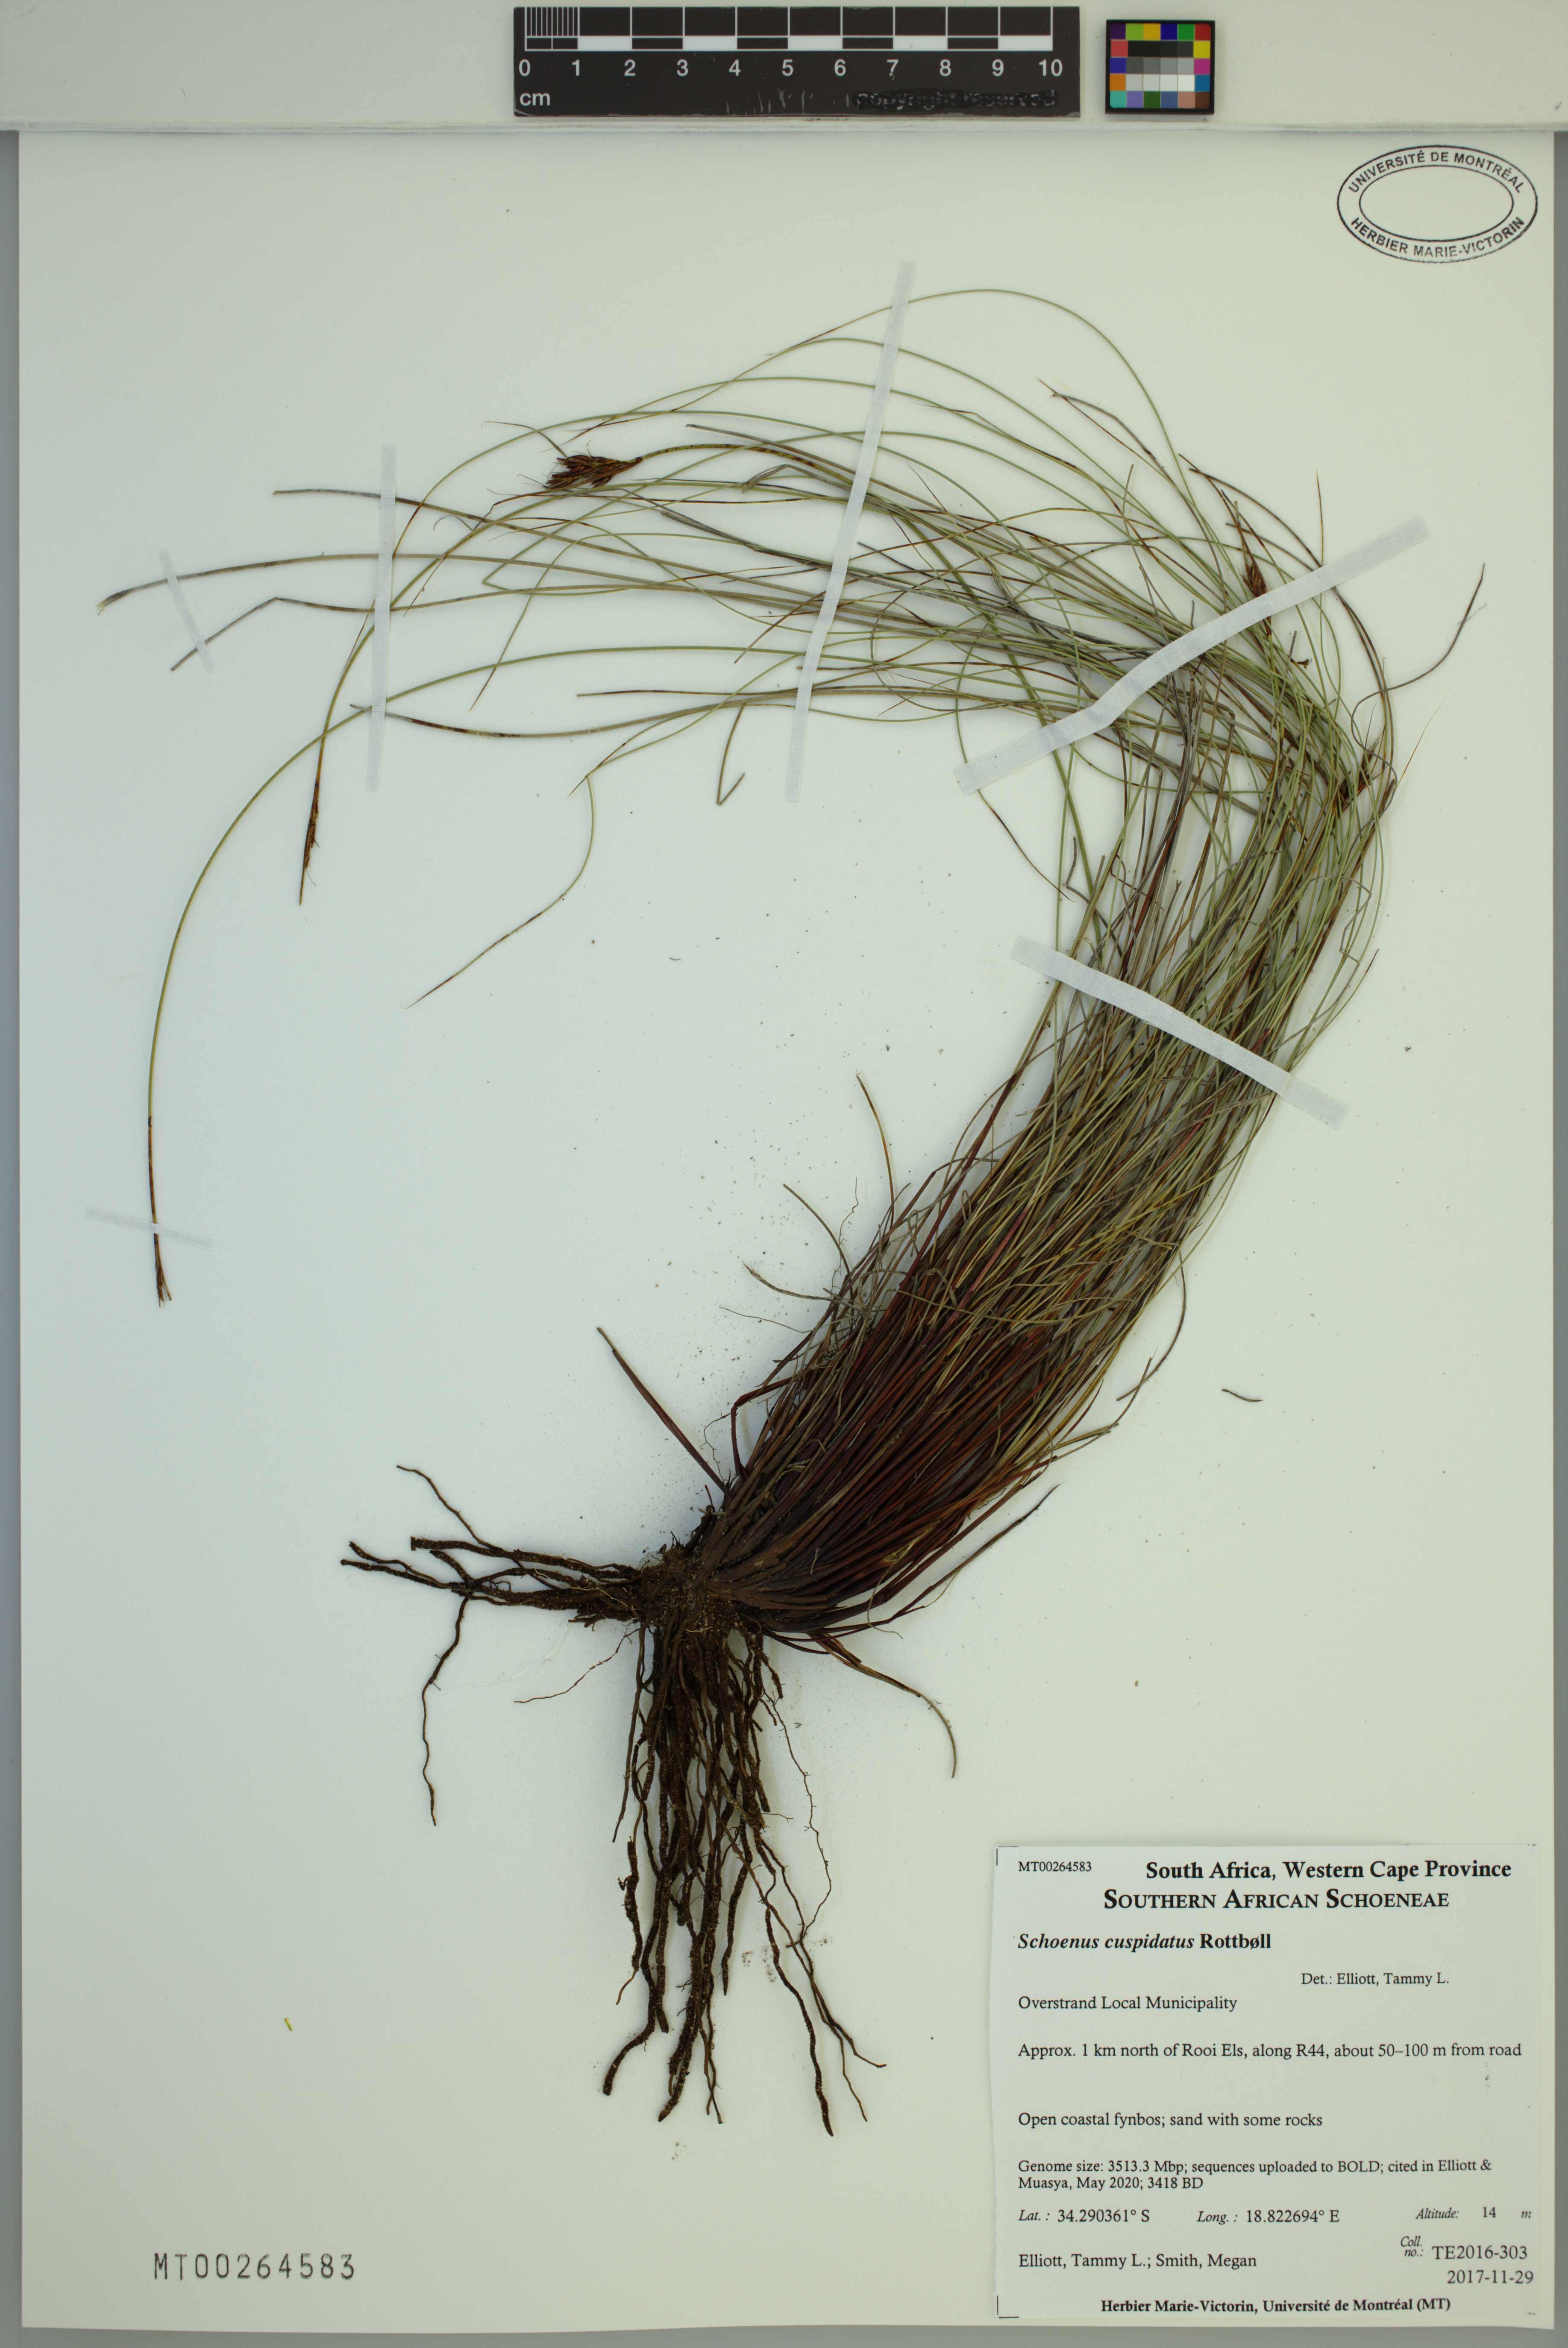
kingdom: Plantae
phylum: Tracheophyta
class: Liliopsida
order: Poales
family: Cyperaceae
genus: Schoenus
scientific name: Schoenus cuspidatus
